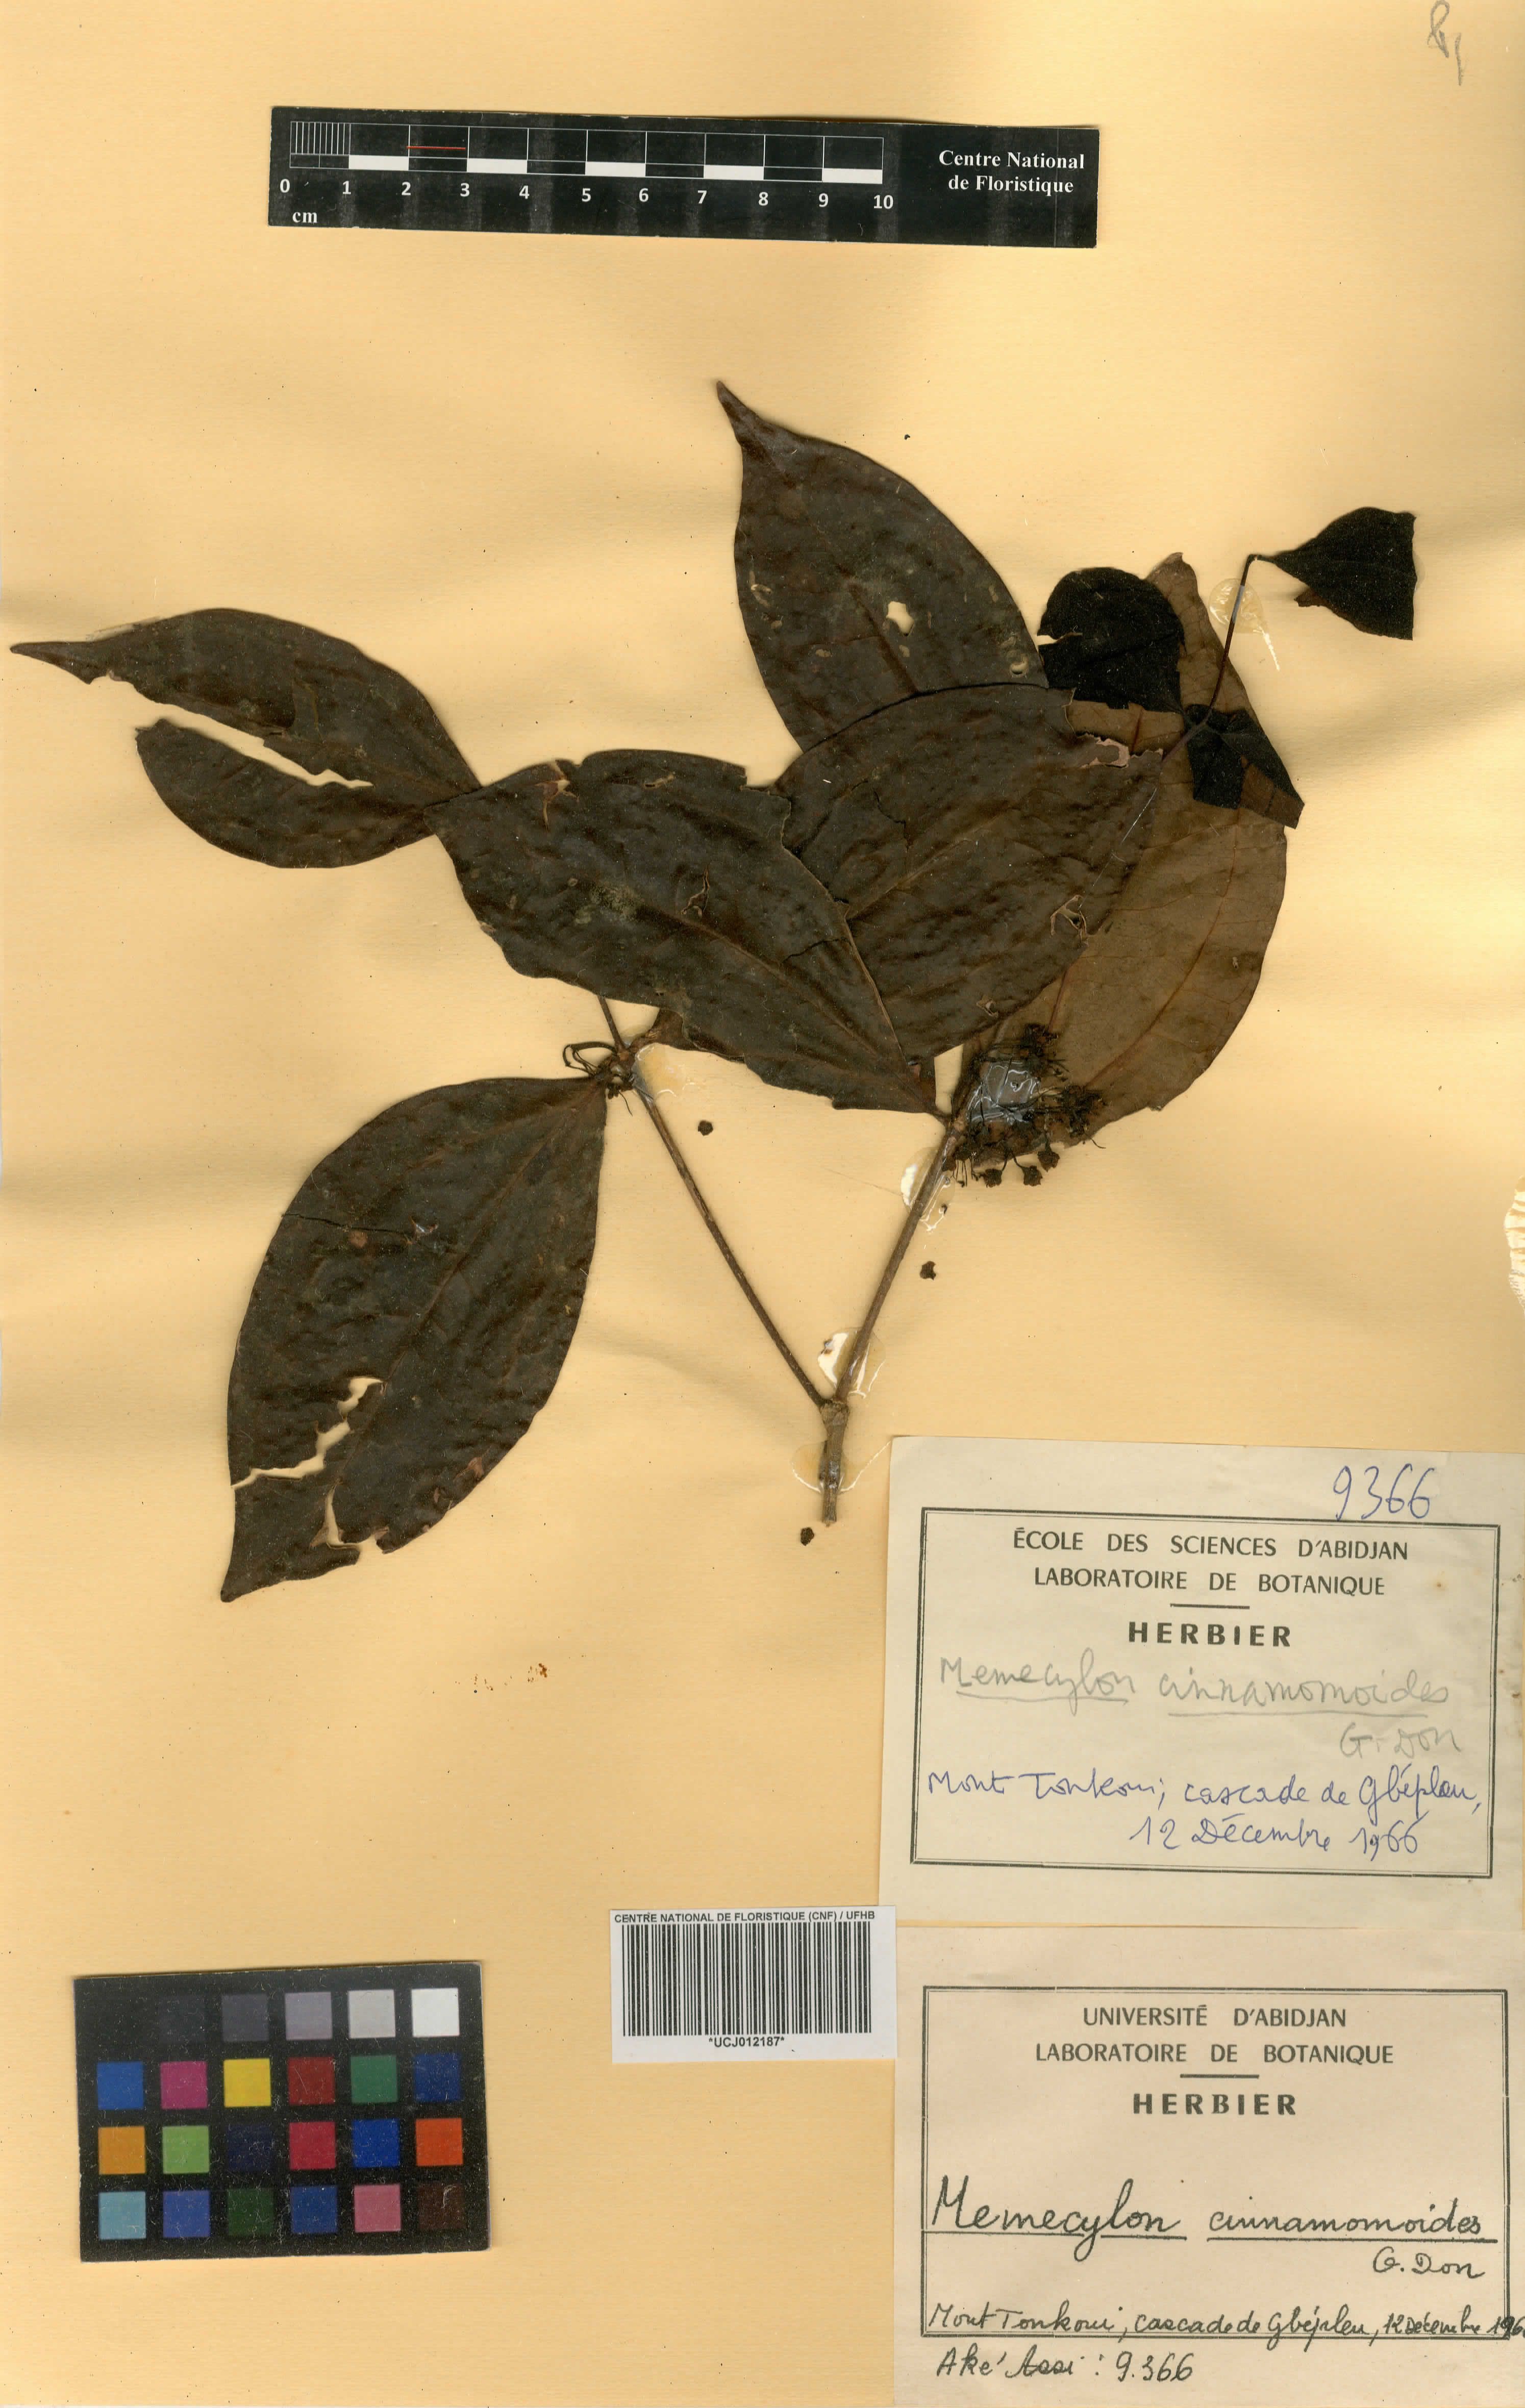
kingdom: Plantae
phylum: Tracheophyta
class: Magnoliopsida
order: Myrtales
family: Melastomataceae
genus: Warneckea
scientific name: Warneckea cinnamomoides
